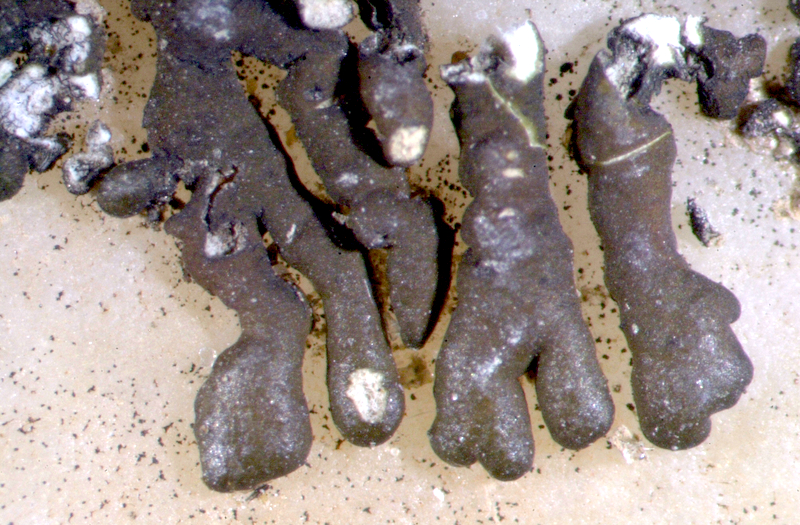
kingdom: Fungi
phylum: Ascomycota
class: Lecanoromycetes
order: Lecanorales
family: Parmeliaceae
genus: Xanthoparmelia
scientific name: Xanthoparmelia dregeana
